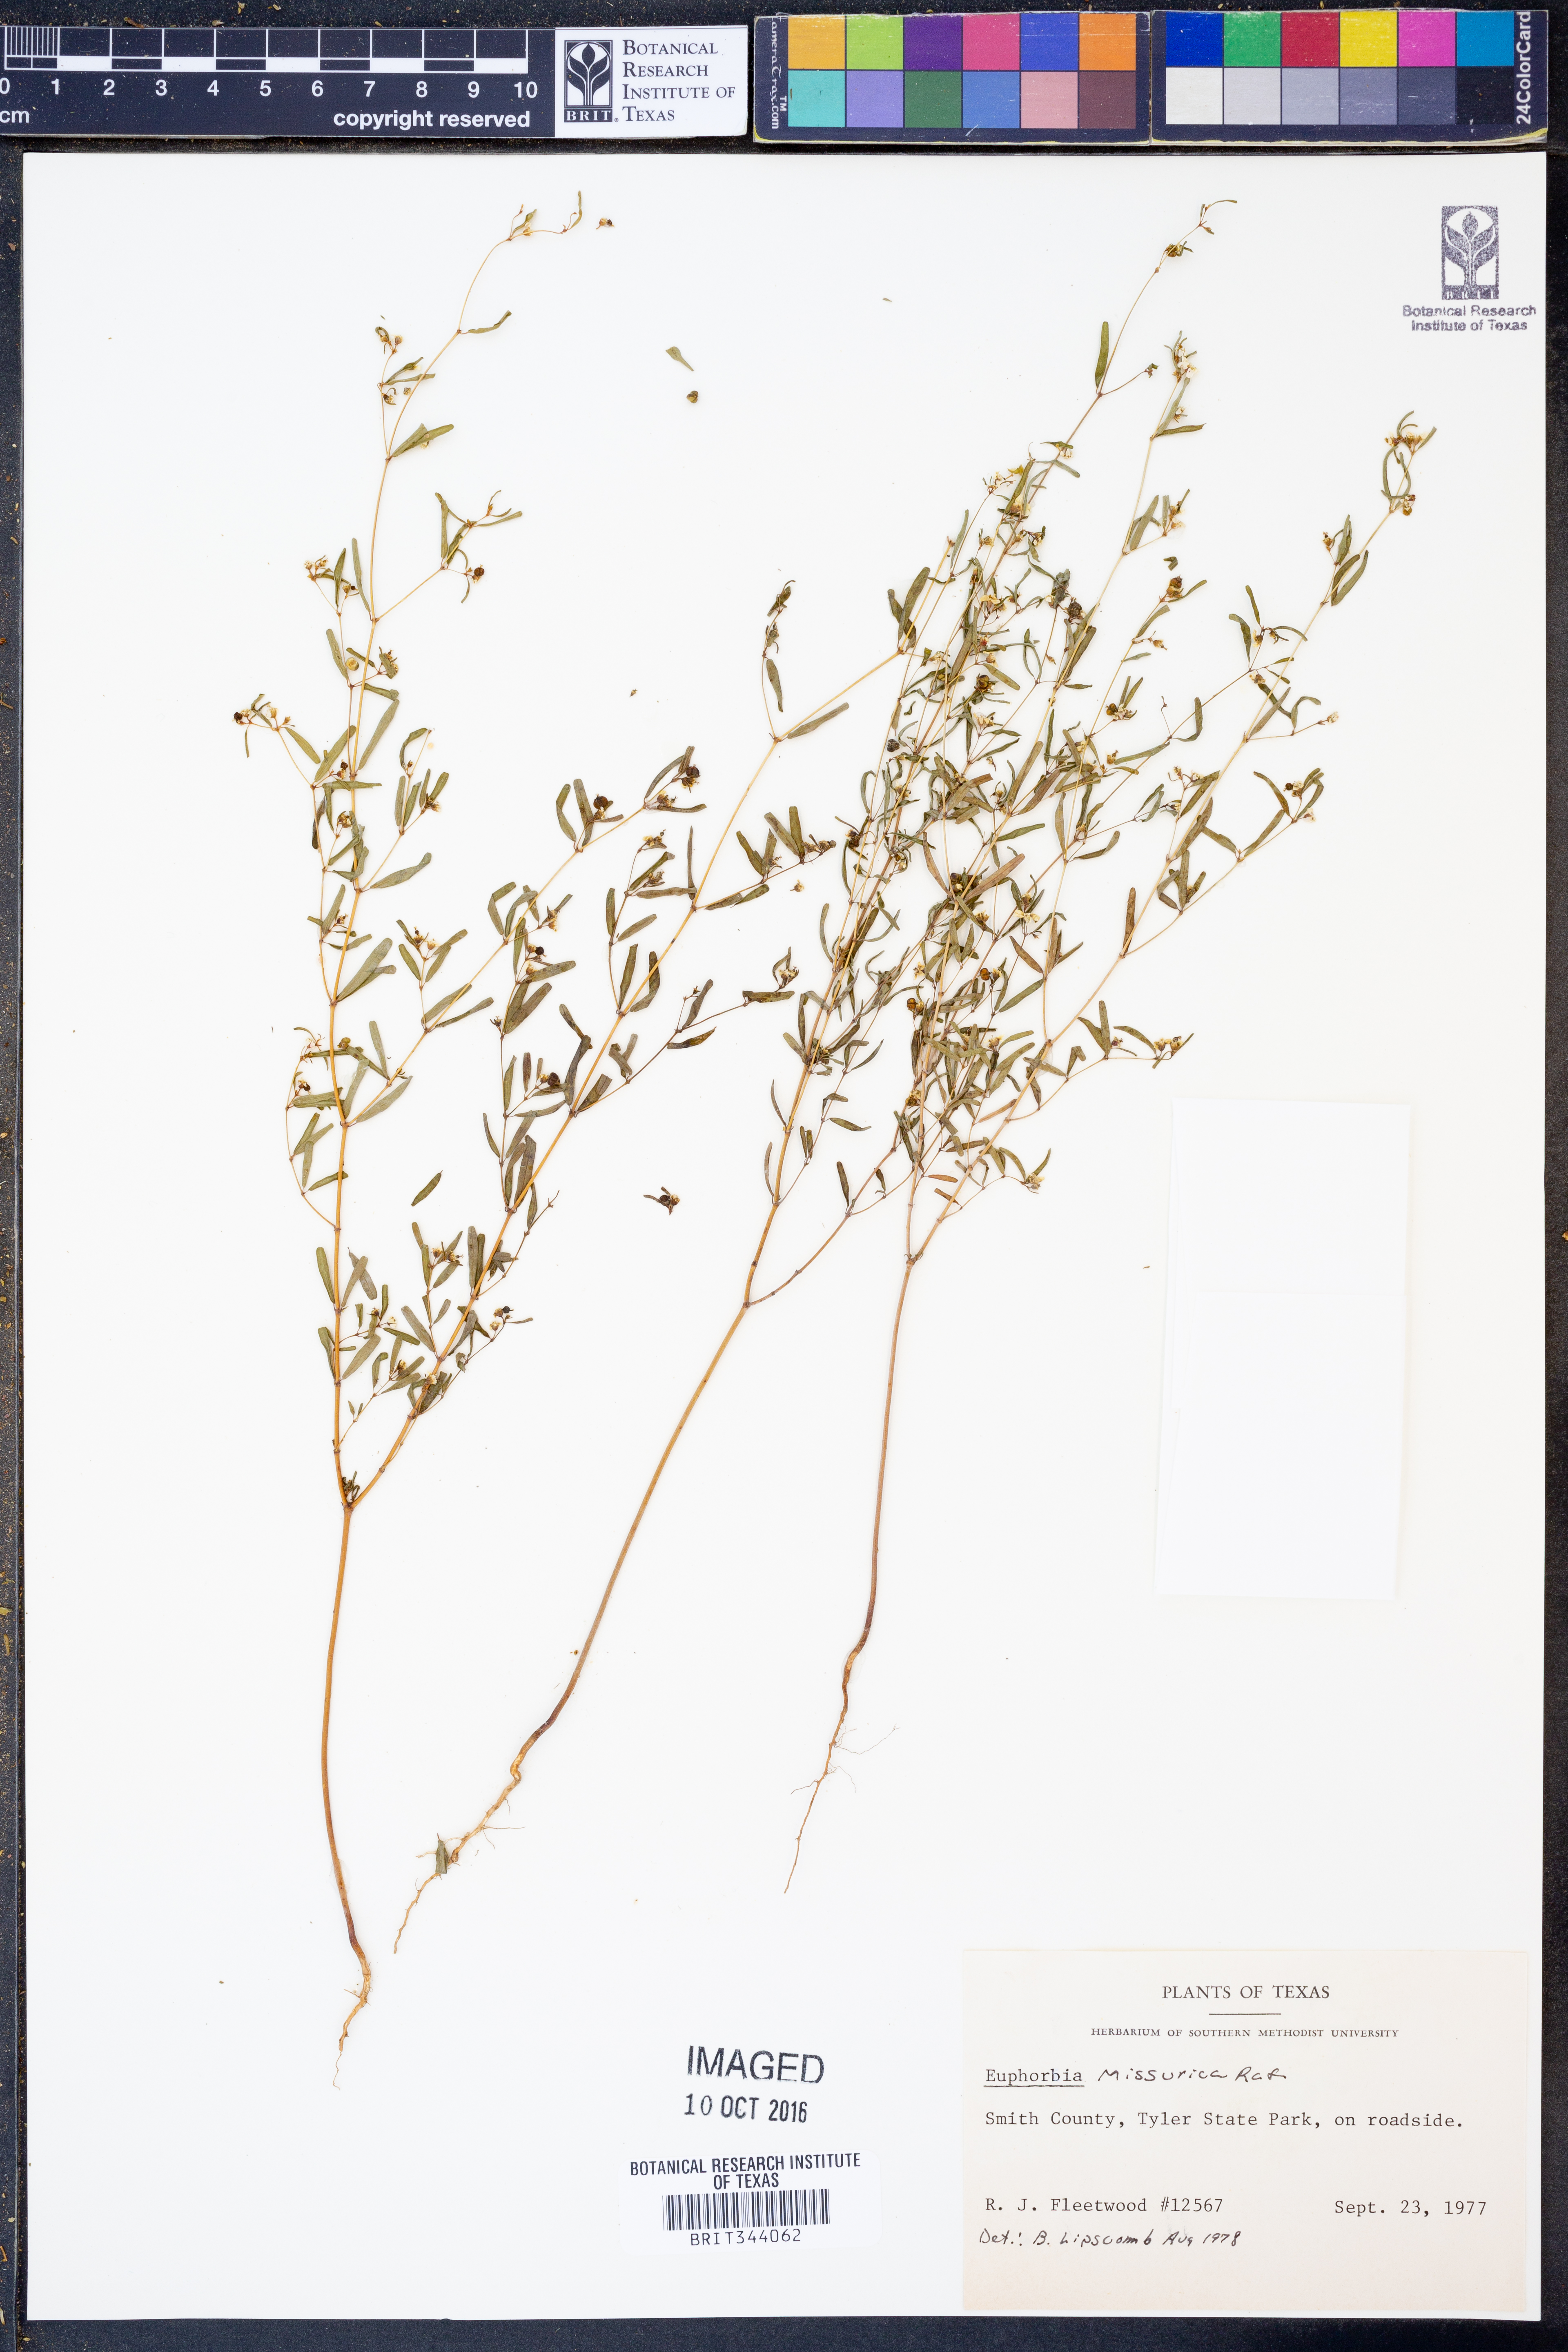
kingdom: Plantae
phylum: Tracheophyta
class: Magnoliopsida
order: Malpighiales
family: Euphorbiaceae
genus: Euphorbia
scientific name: Euphorbia missurica
